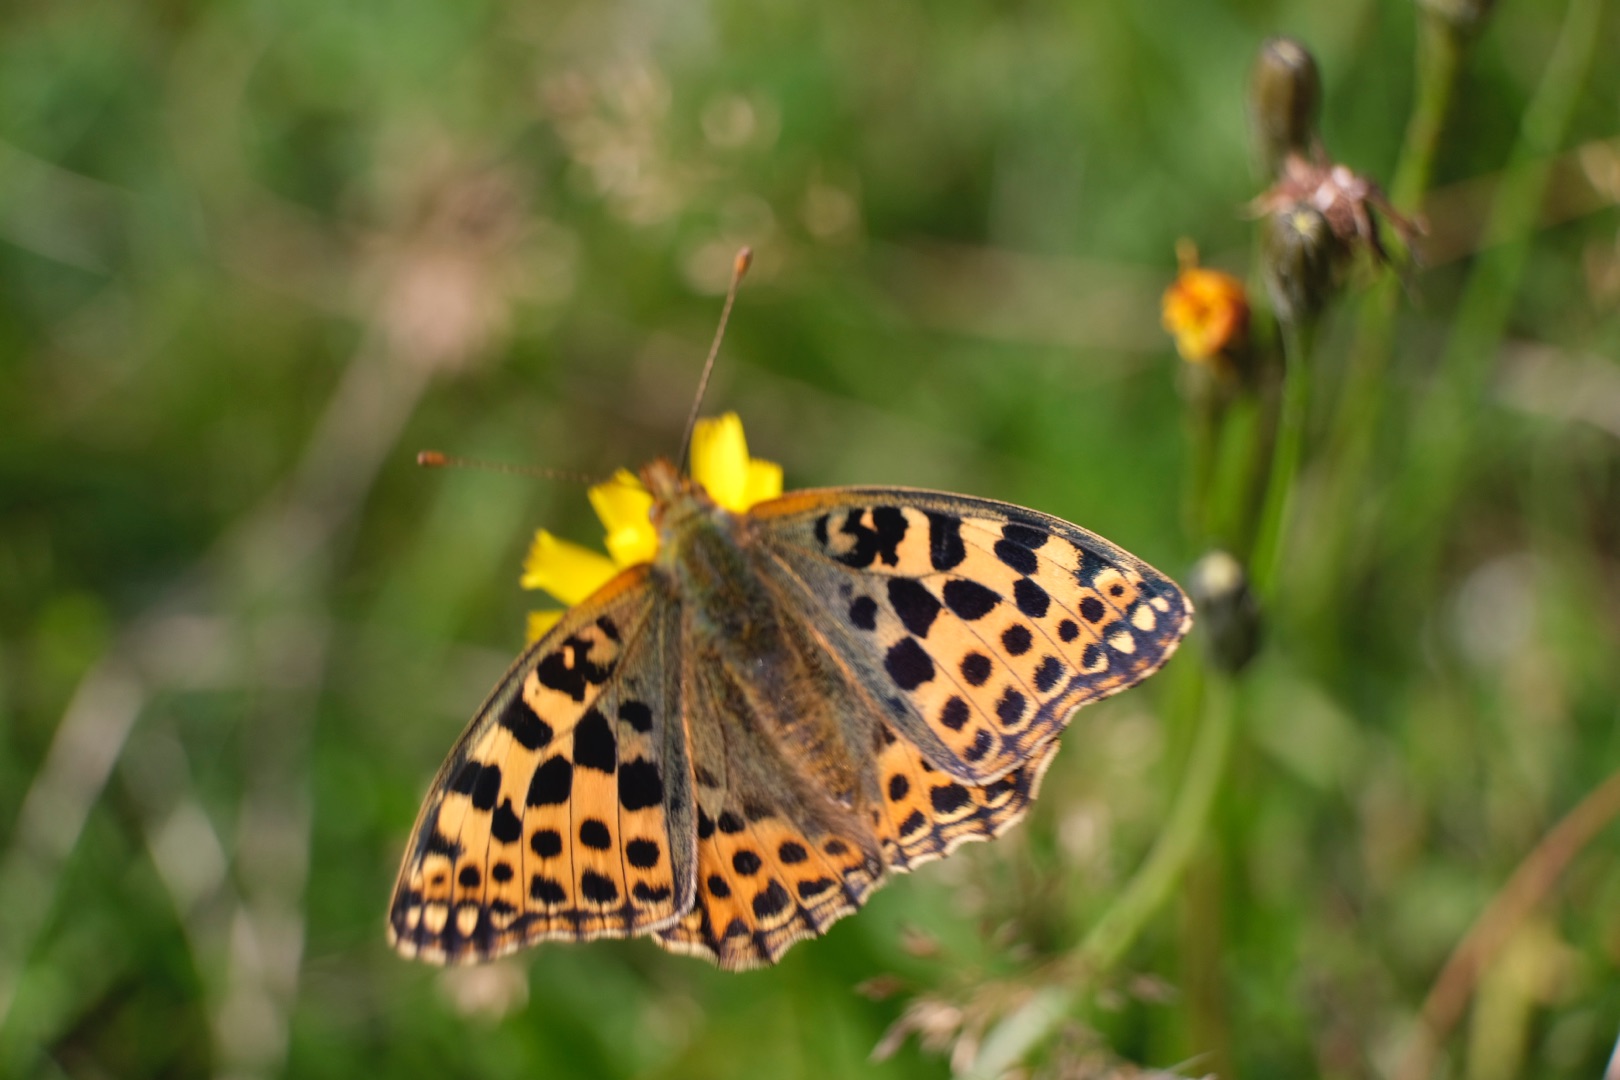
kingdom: Animalia
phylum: Arthropoda
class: Insecta
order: Lepidoptera
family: Nymphalidae
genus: Issoria
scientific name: Issoria lathonia
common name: Storplettet perlemorsommerfugl
